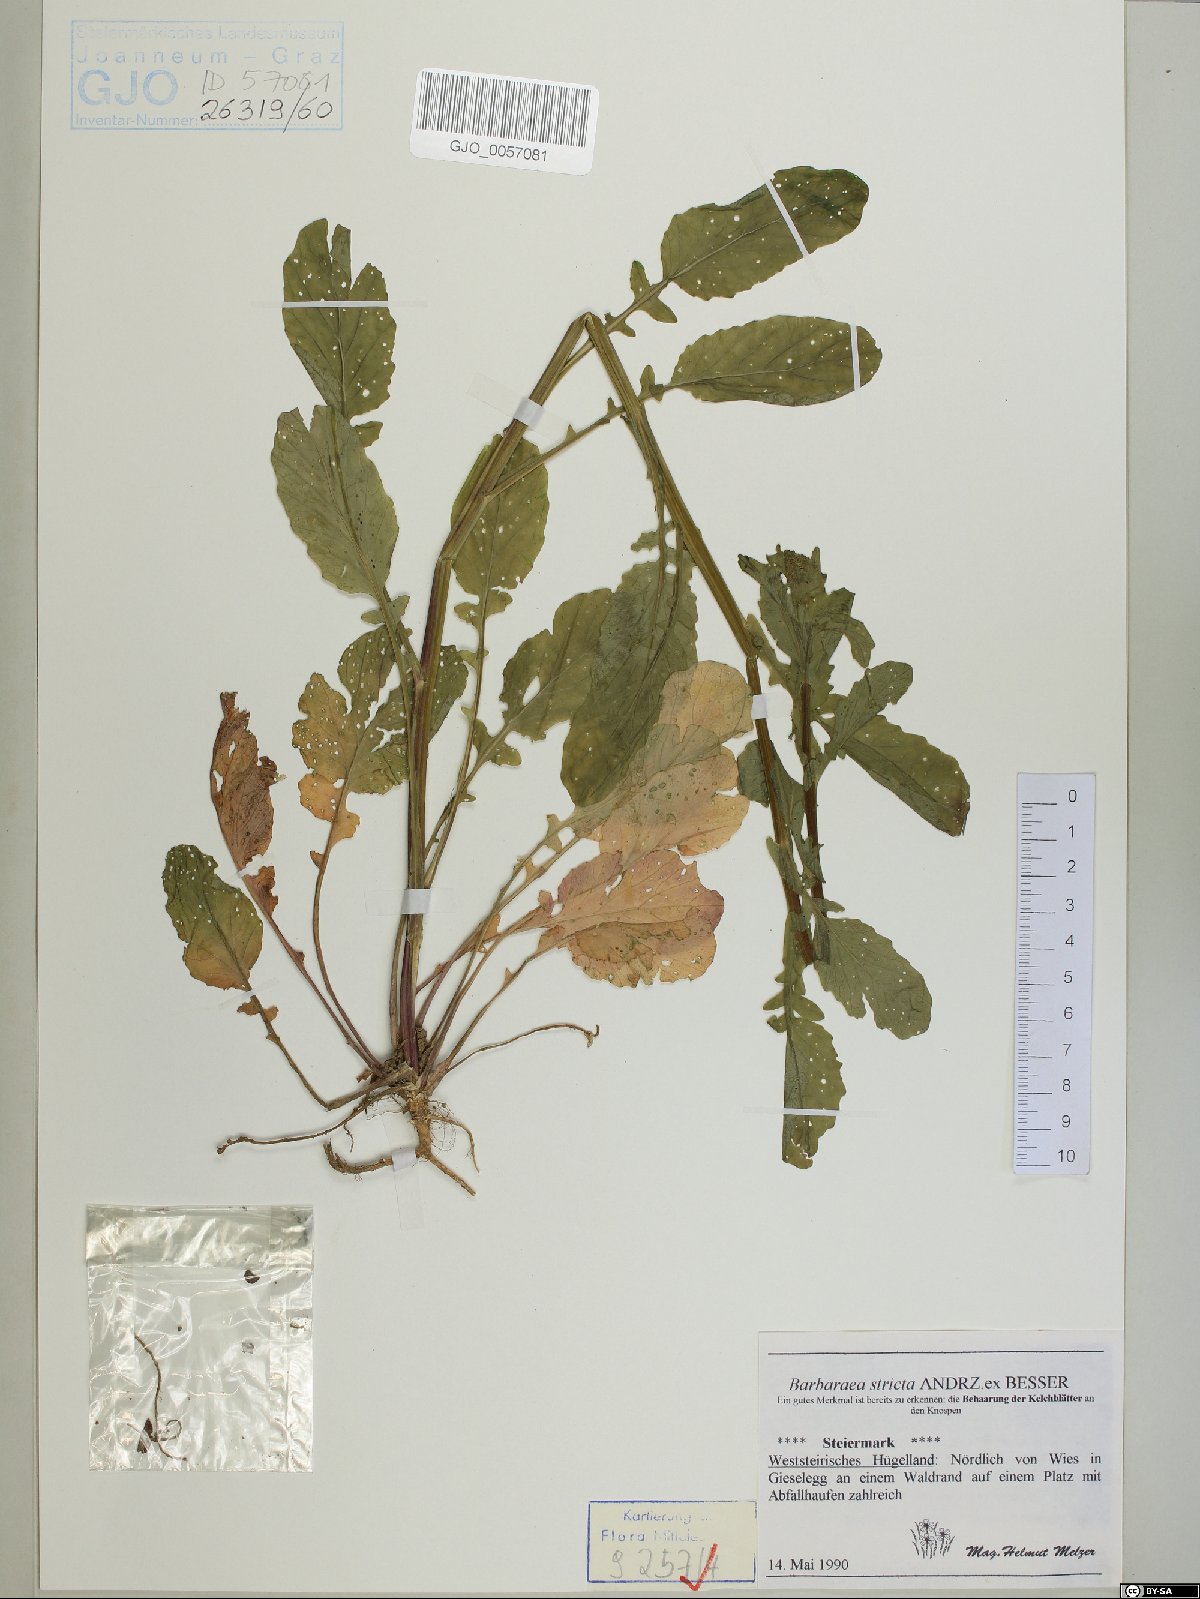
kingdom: Plantae
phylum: Tracheophyta
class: Magnoliopsida
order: Brassicales
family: Brassicaceae
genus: Barbarea
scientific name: Barbarea stricta
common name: Small-flowered winter-cress
